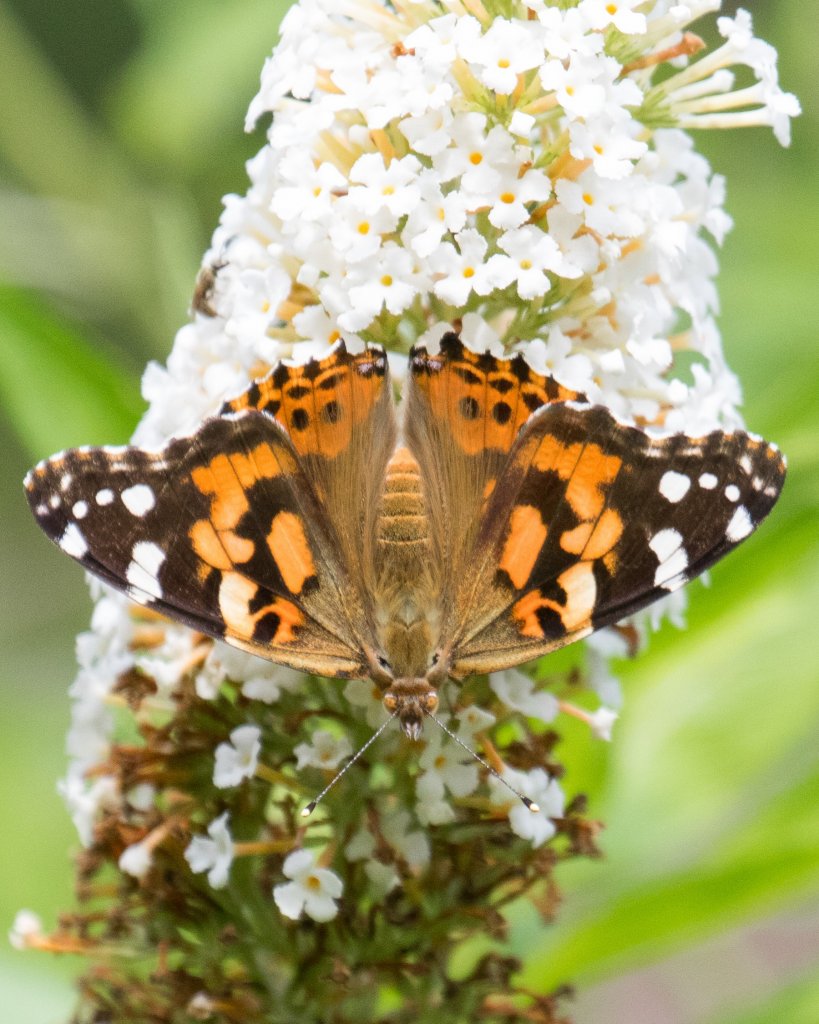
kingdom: Animalia
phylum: Arthropoda
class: Insecta
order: Lepidoptera
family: Nymphalidae
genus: Vanessa
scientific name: Vanessa cardui
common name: Painted Lady
